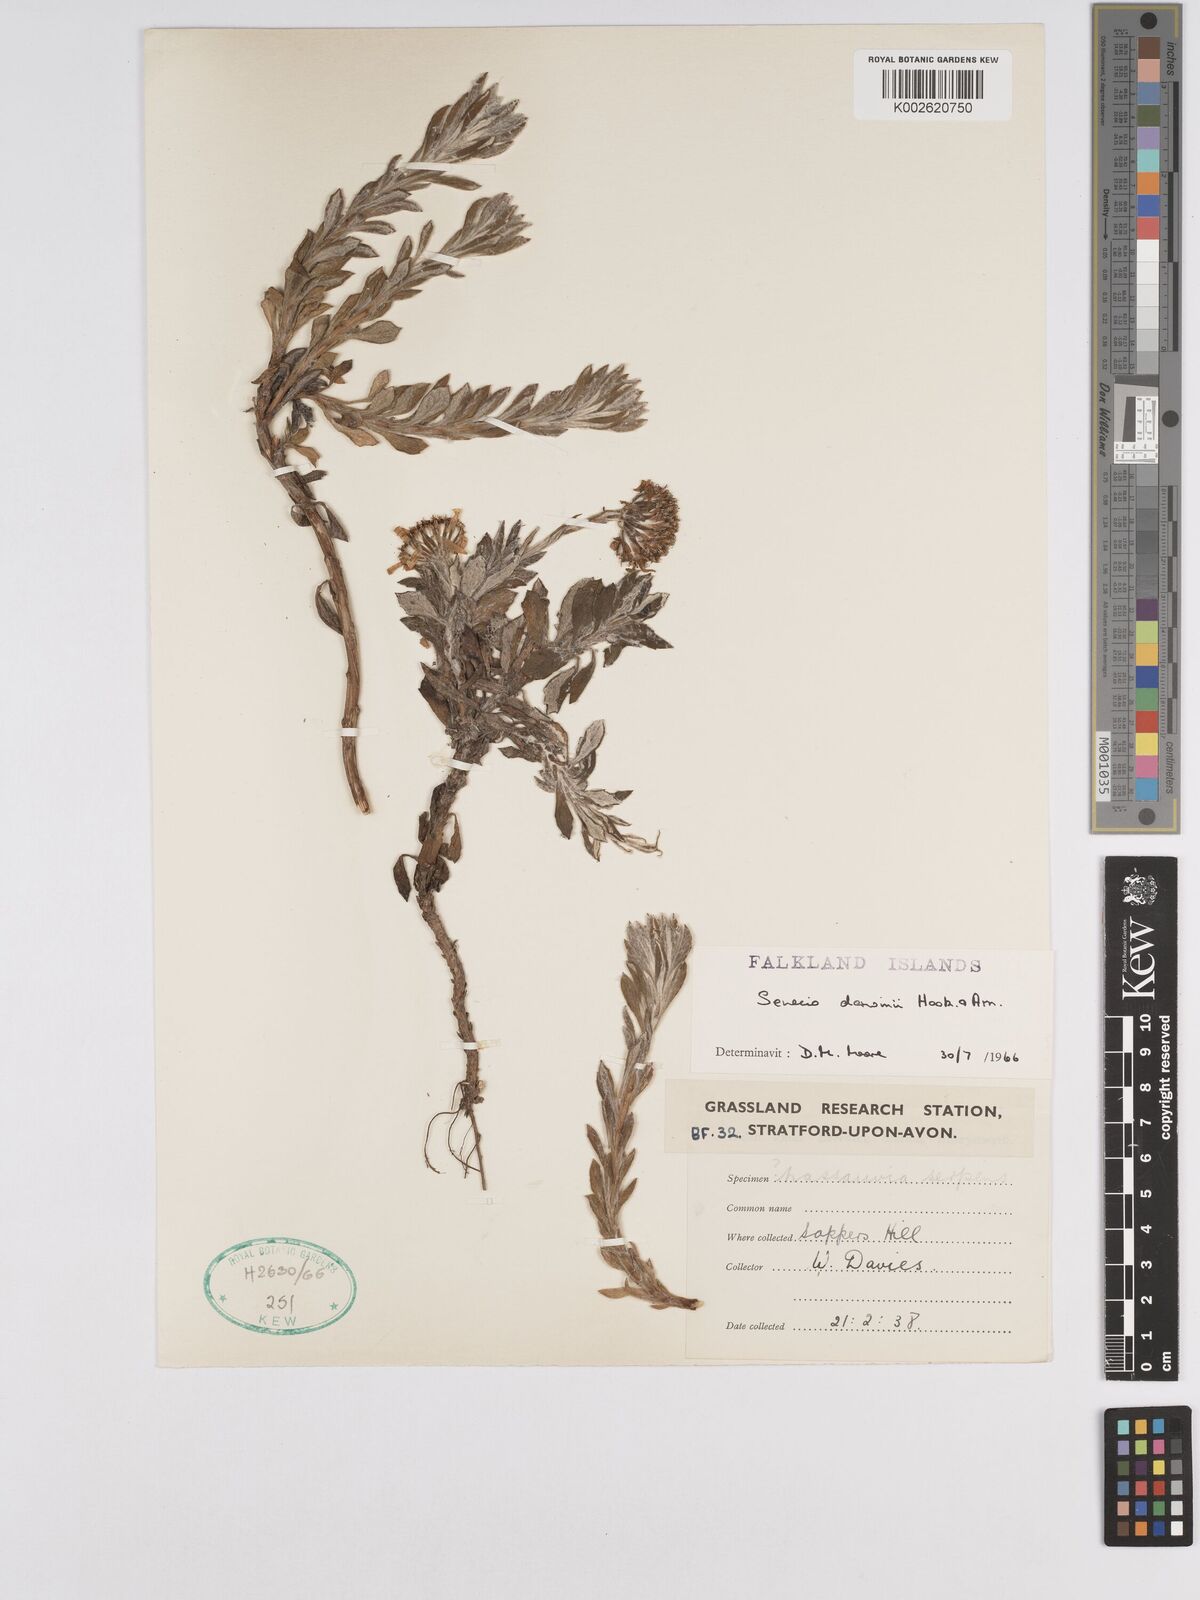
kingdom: Plantae
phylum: Tracheophyta
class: Magnoliopsida
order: Asterales
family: Asteraceae
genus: Senecio
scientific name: Senecio darwinii
